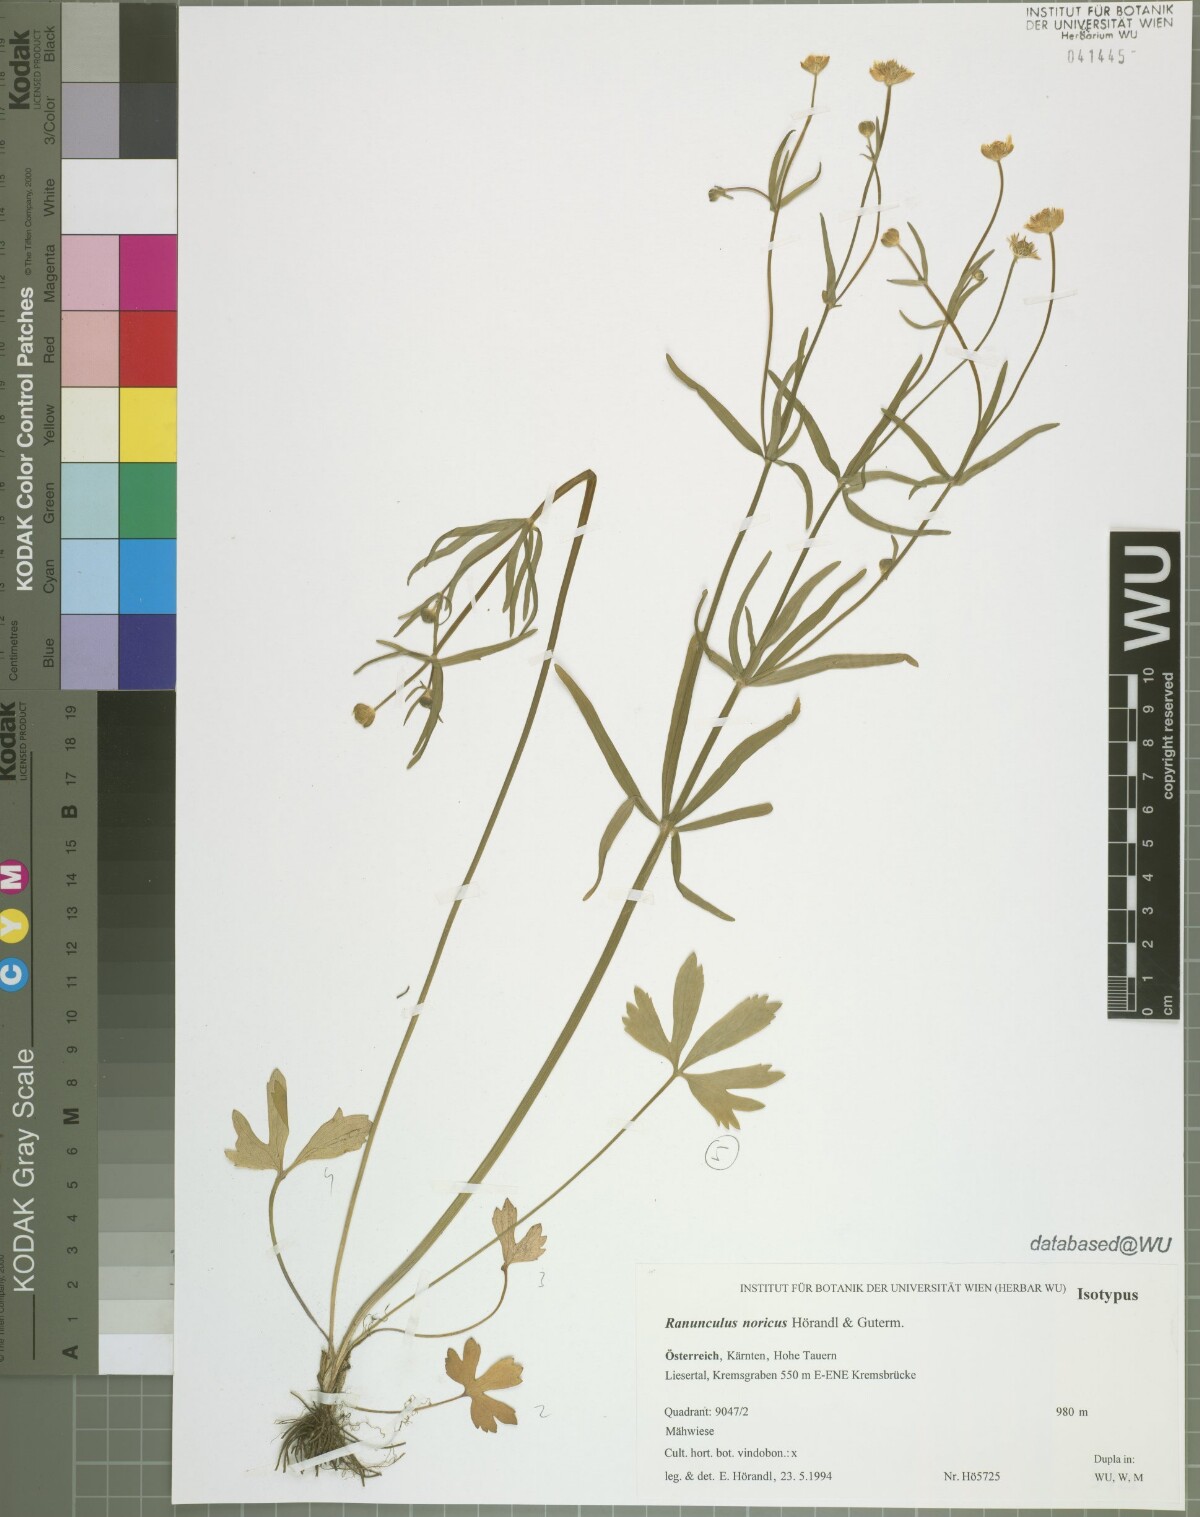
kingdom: Plantae
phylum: Tracheophyta
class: Magnoliopsida
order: Ranunculales
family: Ranunculaceae
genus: Ranunculus
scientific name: Ranunculus noricus
